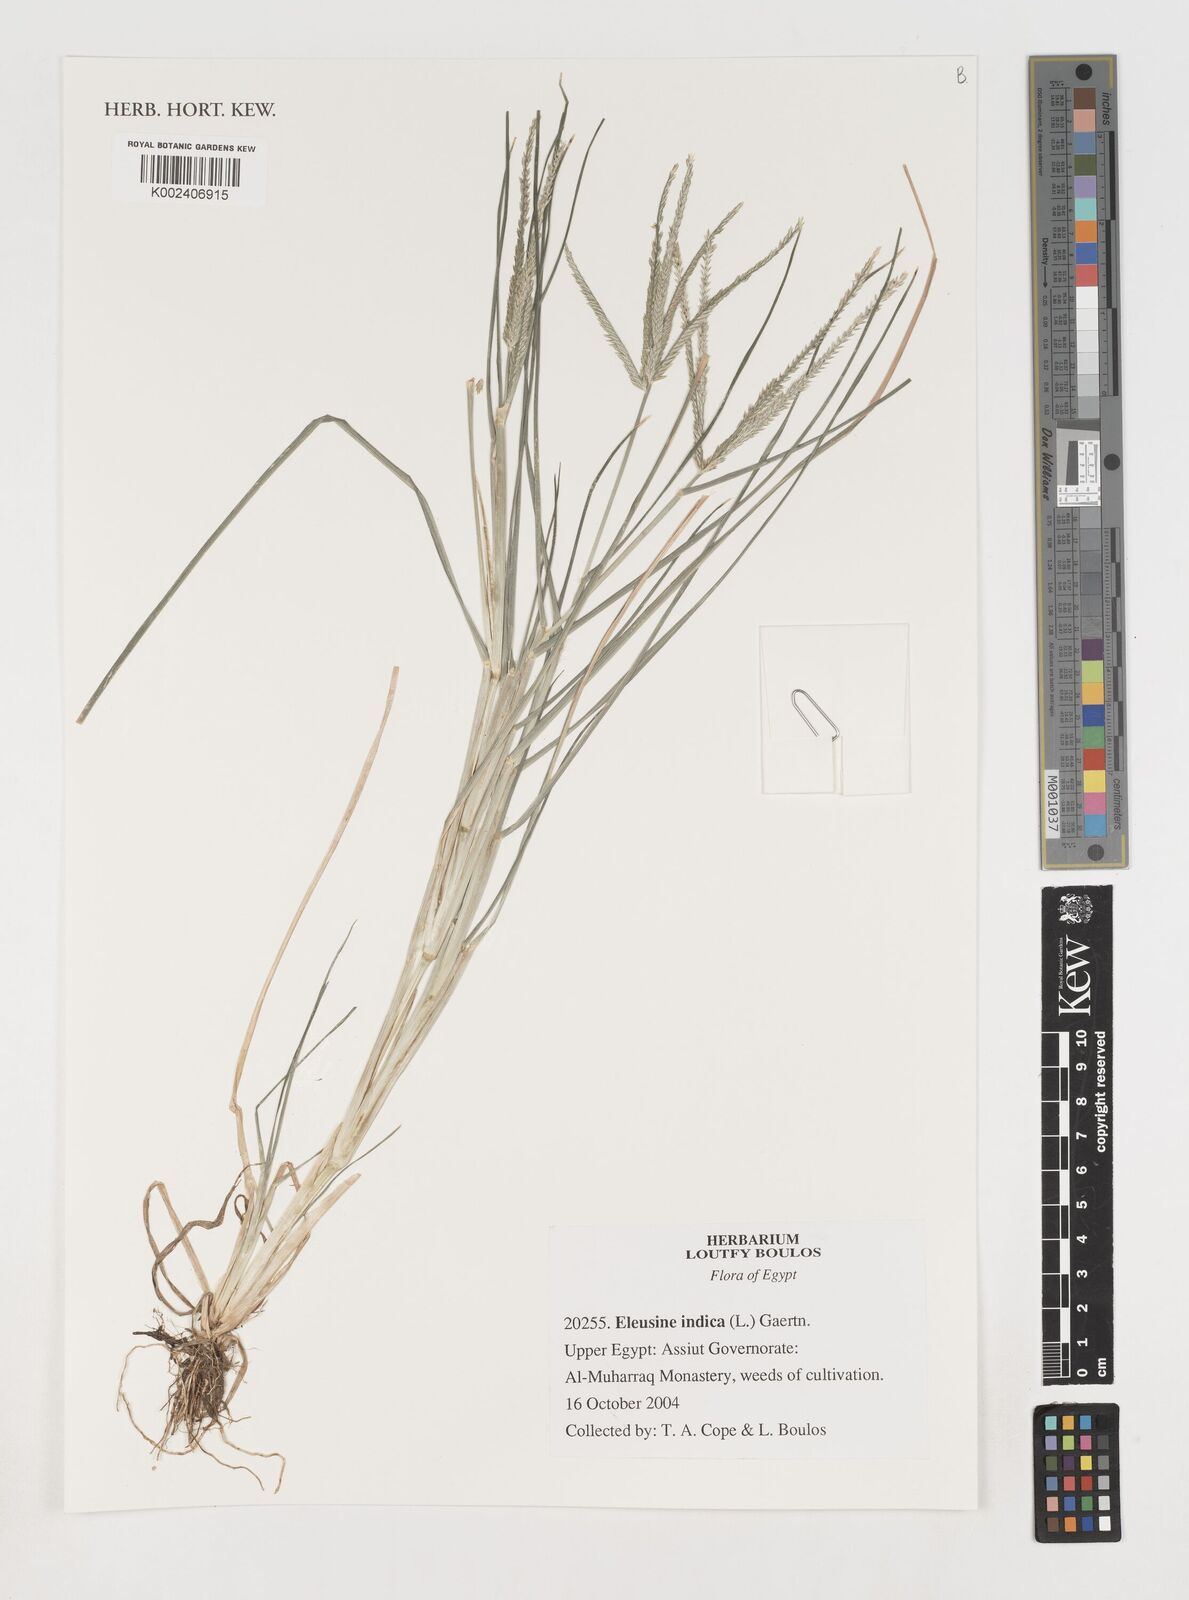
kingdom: Plantae
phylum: Tracheophyta
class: Liliopsida
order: Poales
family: Poaceae
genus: Eleusine
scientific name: Eleusine indica
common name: Yard-grass
